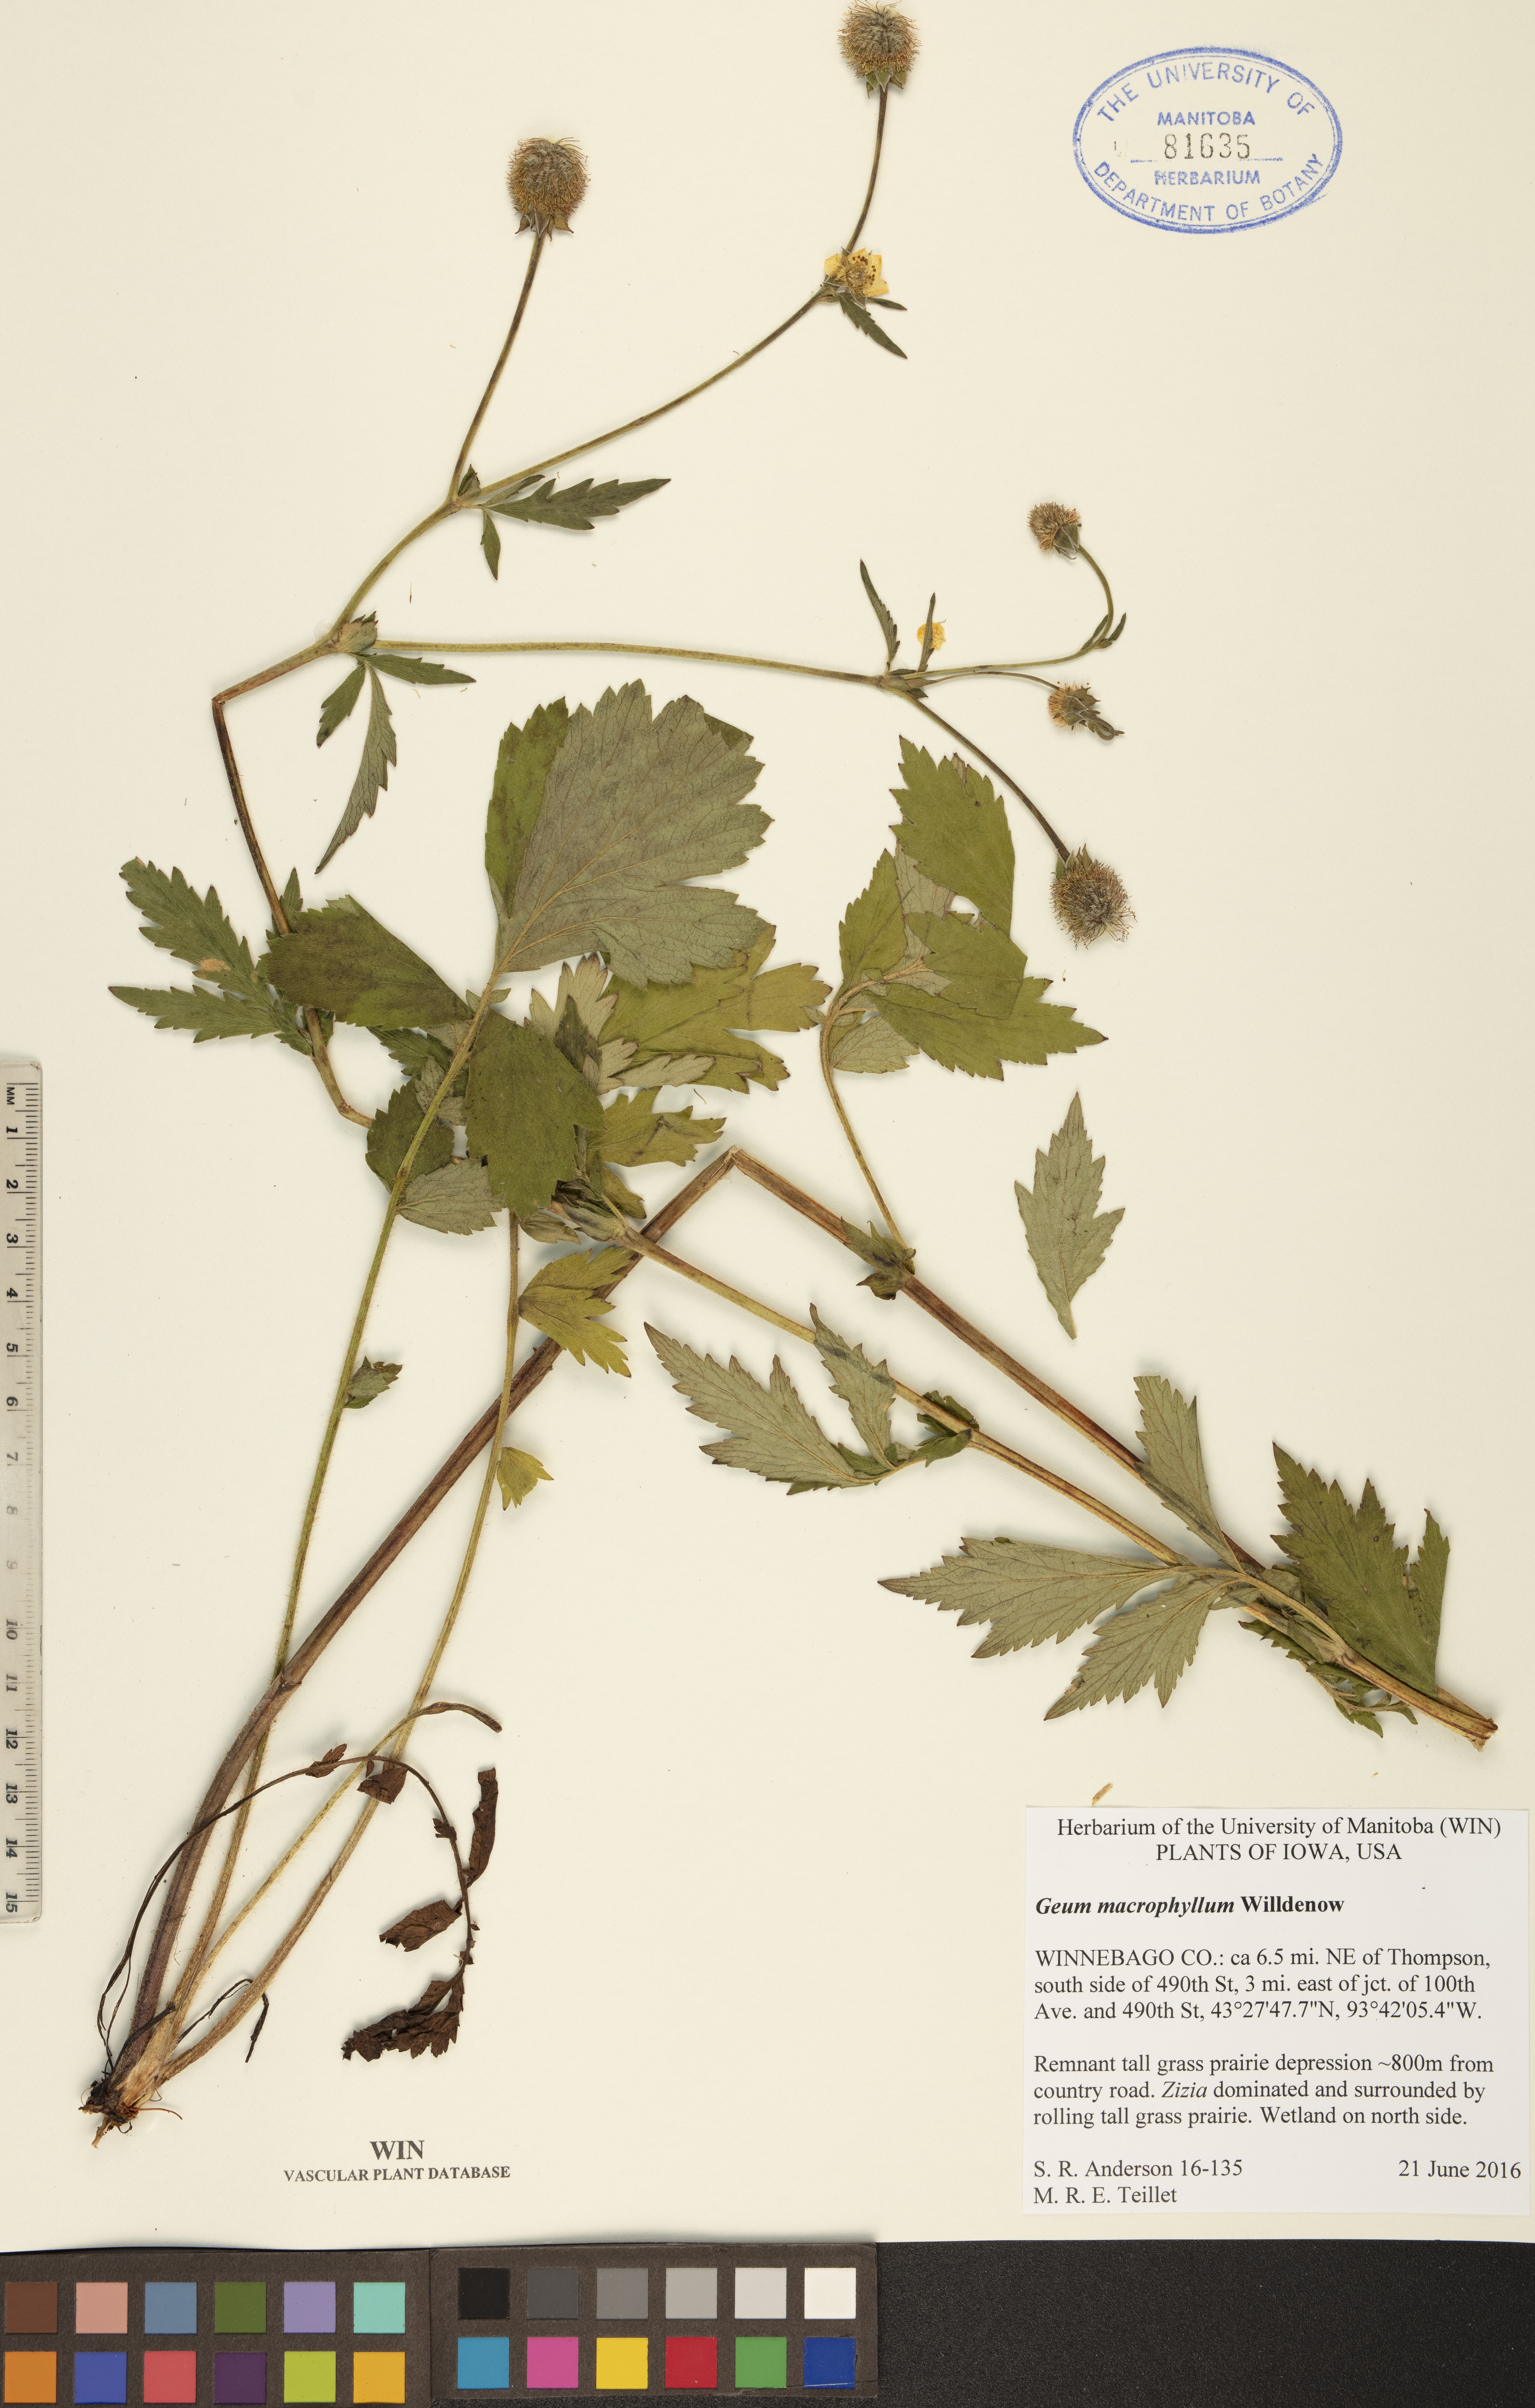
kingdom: Plantae
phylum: Tracheophyta
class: Magnoliopsida
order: Rosales
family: Rosaceae
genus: Geum
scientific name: Geum macrophyllum
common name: Large-leaved avens
